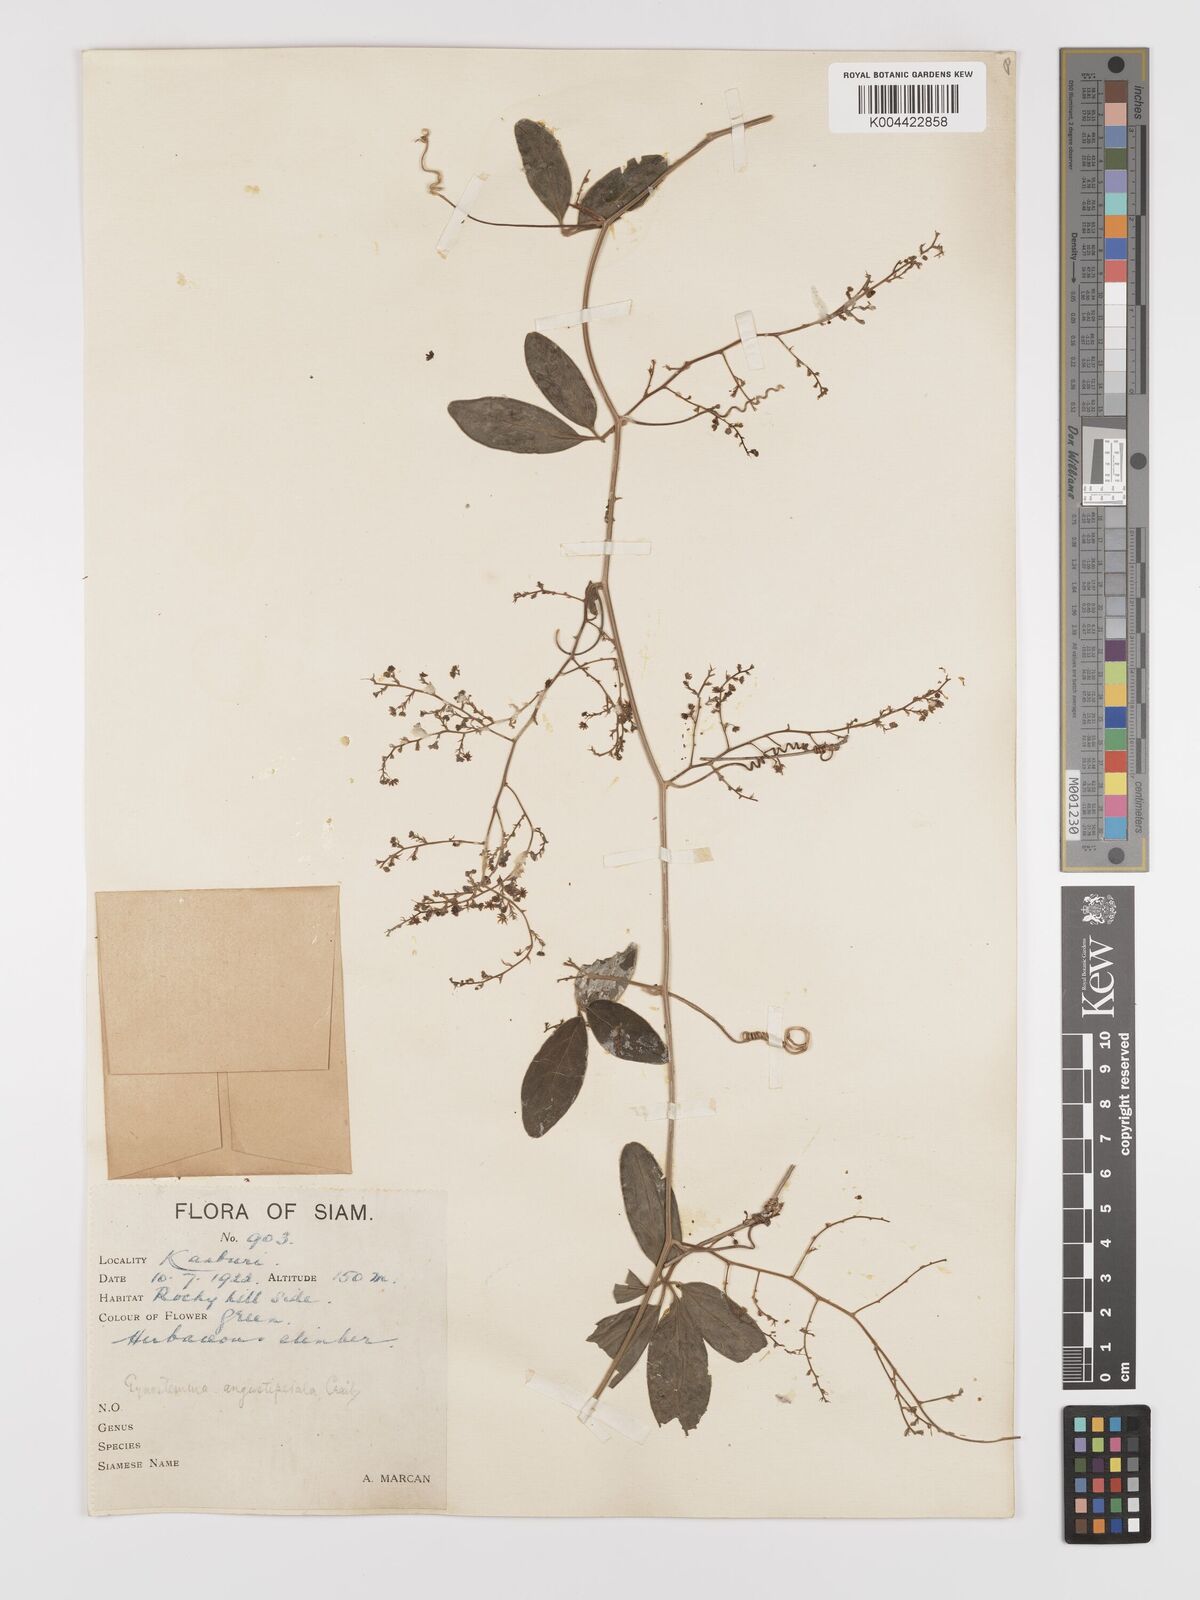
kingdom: Plantae
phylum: Tracheophyta
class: Magnoliopsida
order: Cucurbitales
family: Cucurbitaceae
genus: Neoalsomitra
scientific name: Neoalsomitra angustipetala
